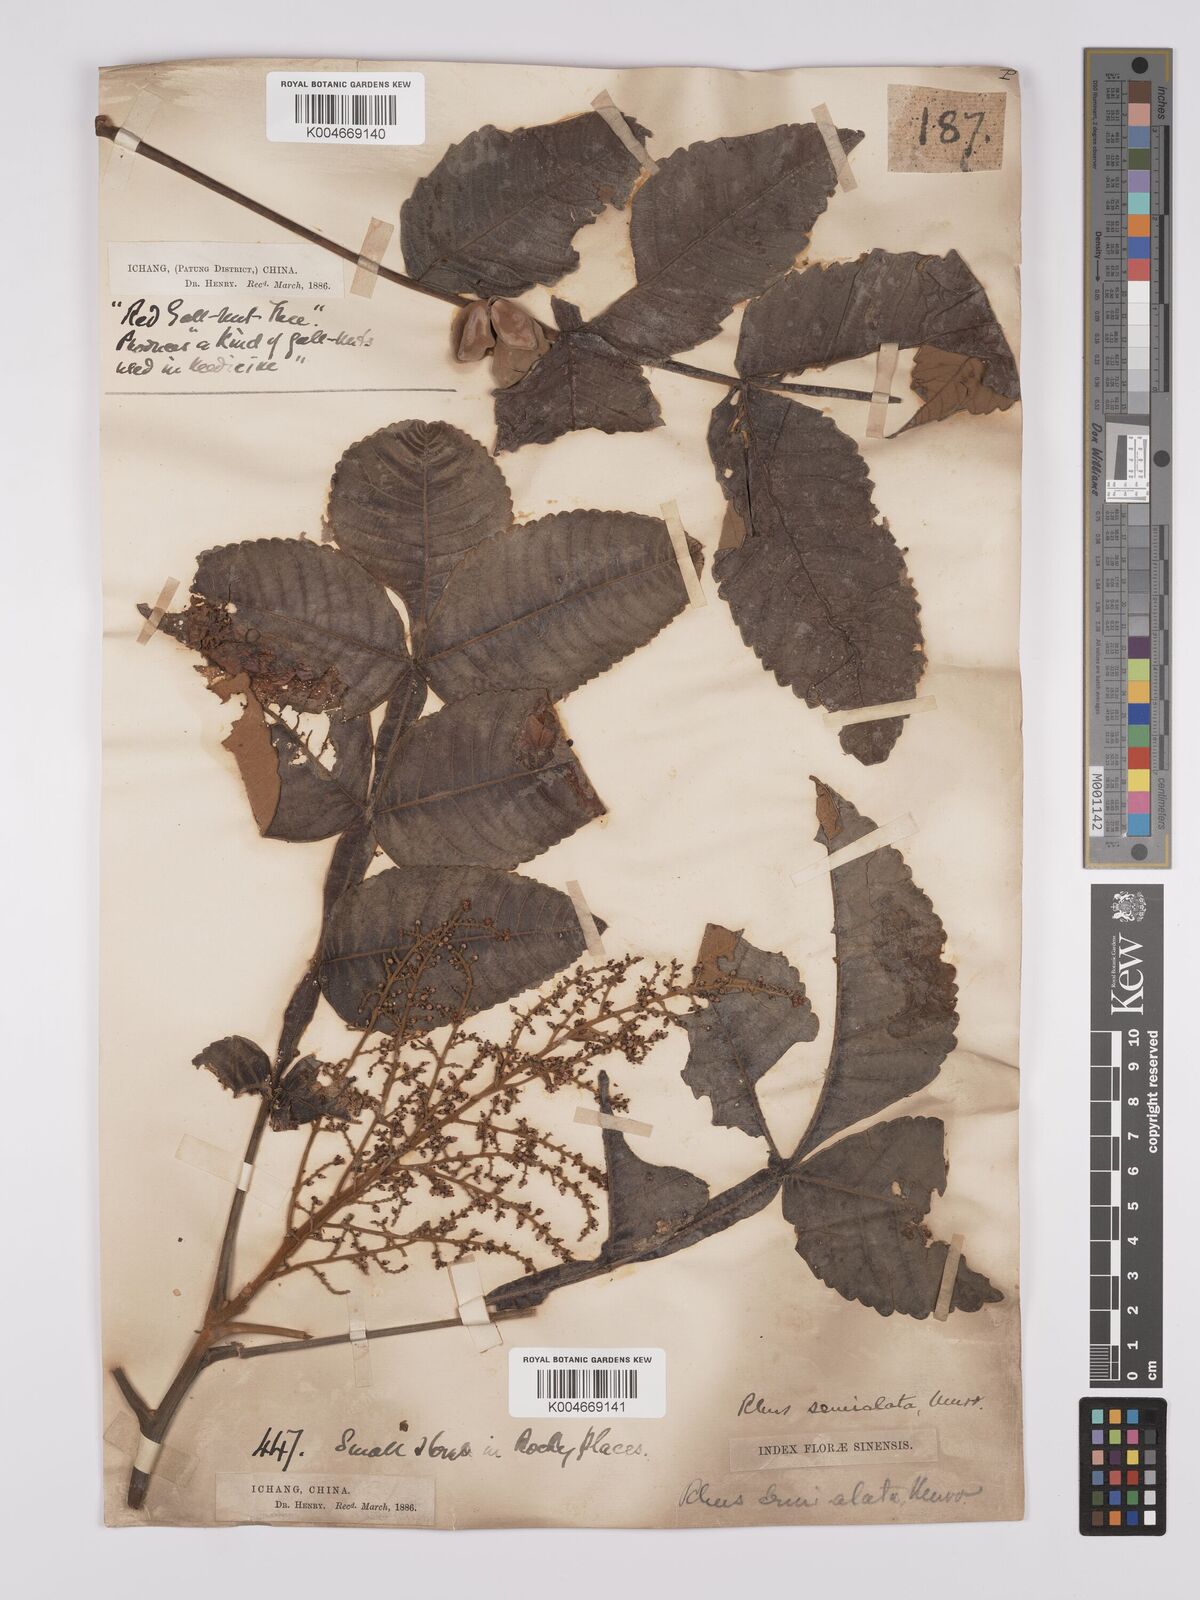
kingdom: Plantae
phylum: Tracheophyta
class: Magnoliopsida
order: Sapindales
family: Simaroubaceae
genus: Brucea
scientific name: Brucea javanica
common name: Macassar kernels
